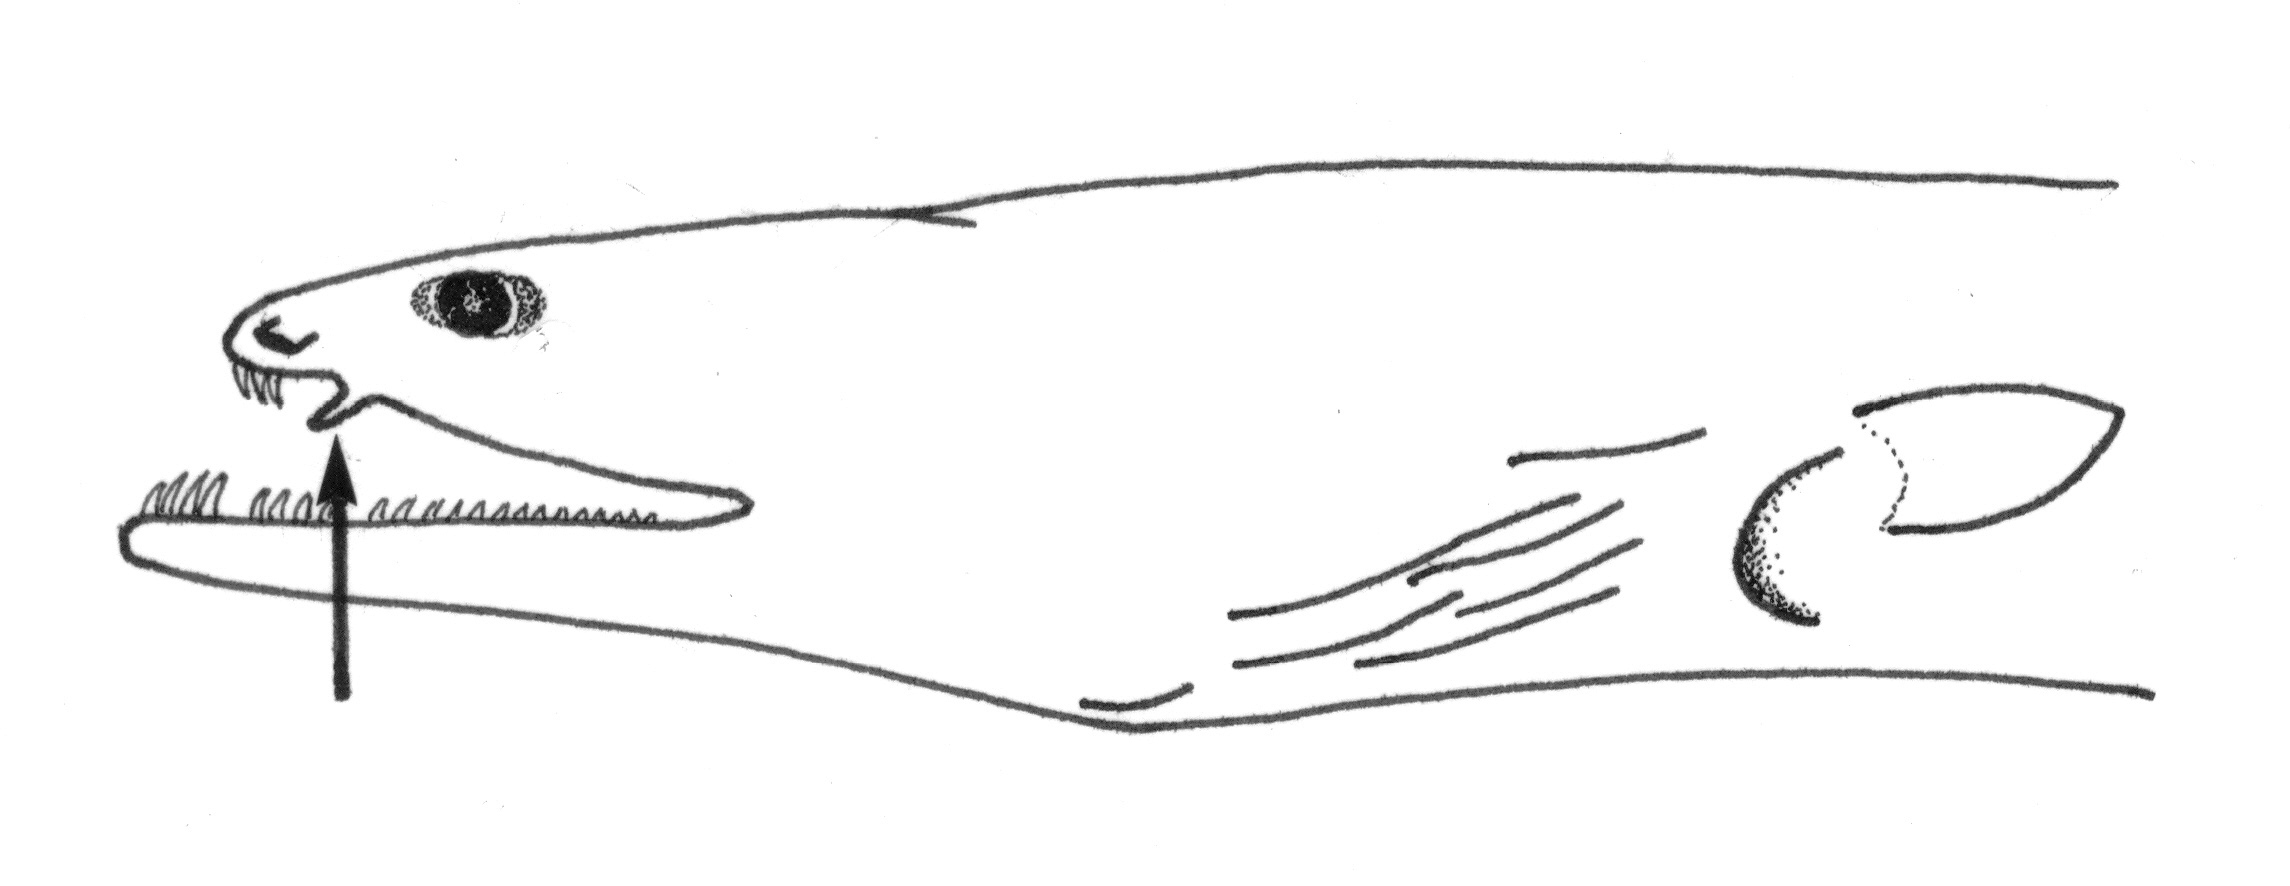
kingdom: Animalia
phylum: Chordata
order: Anguilliformes
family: Ophichthidae
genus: Herpetoichthys
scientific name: Herpetoichthys
